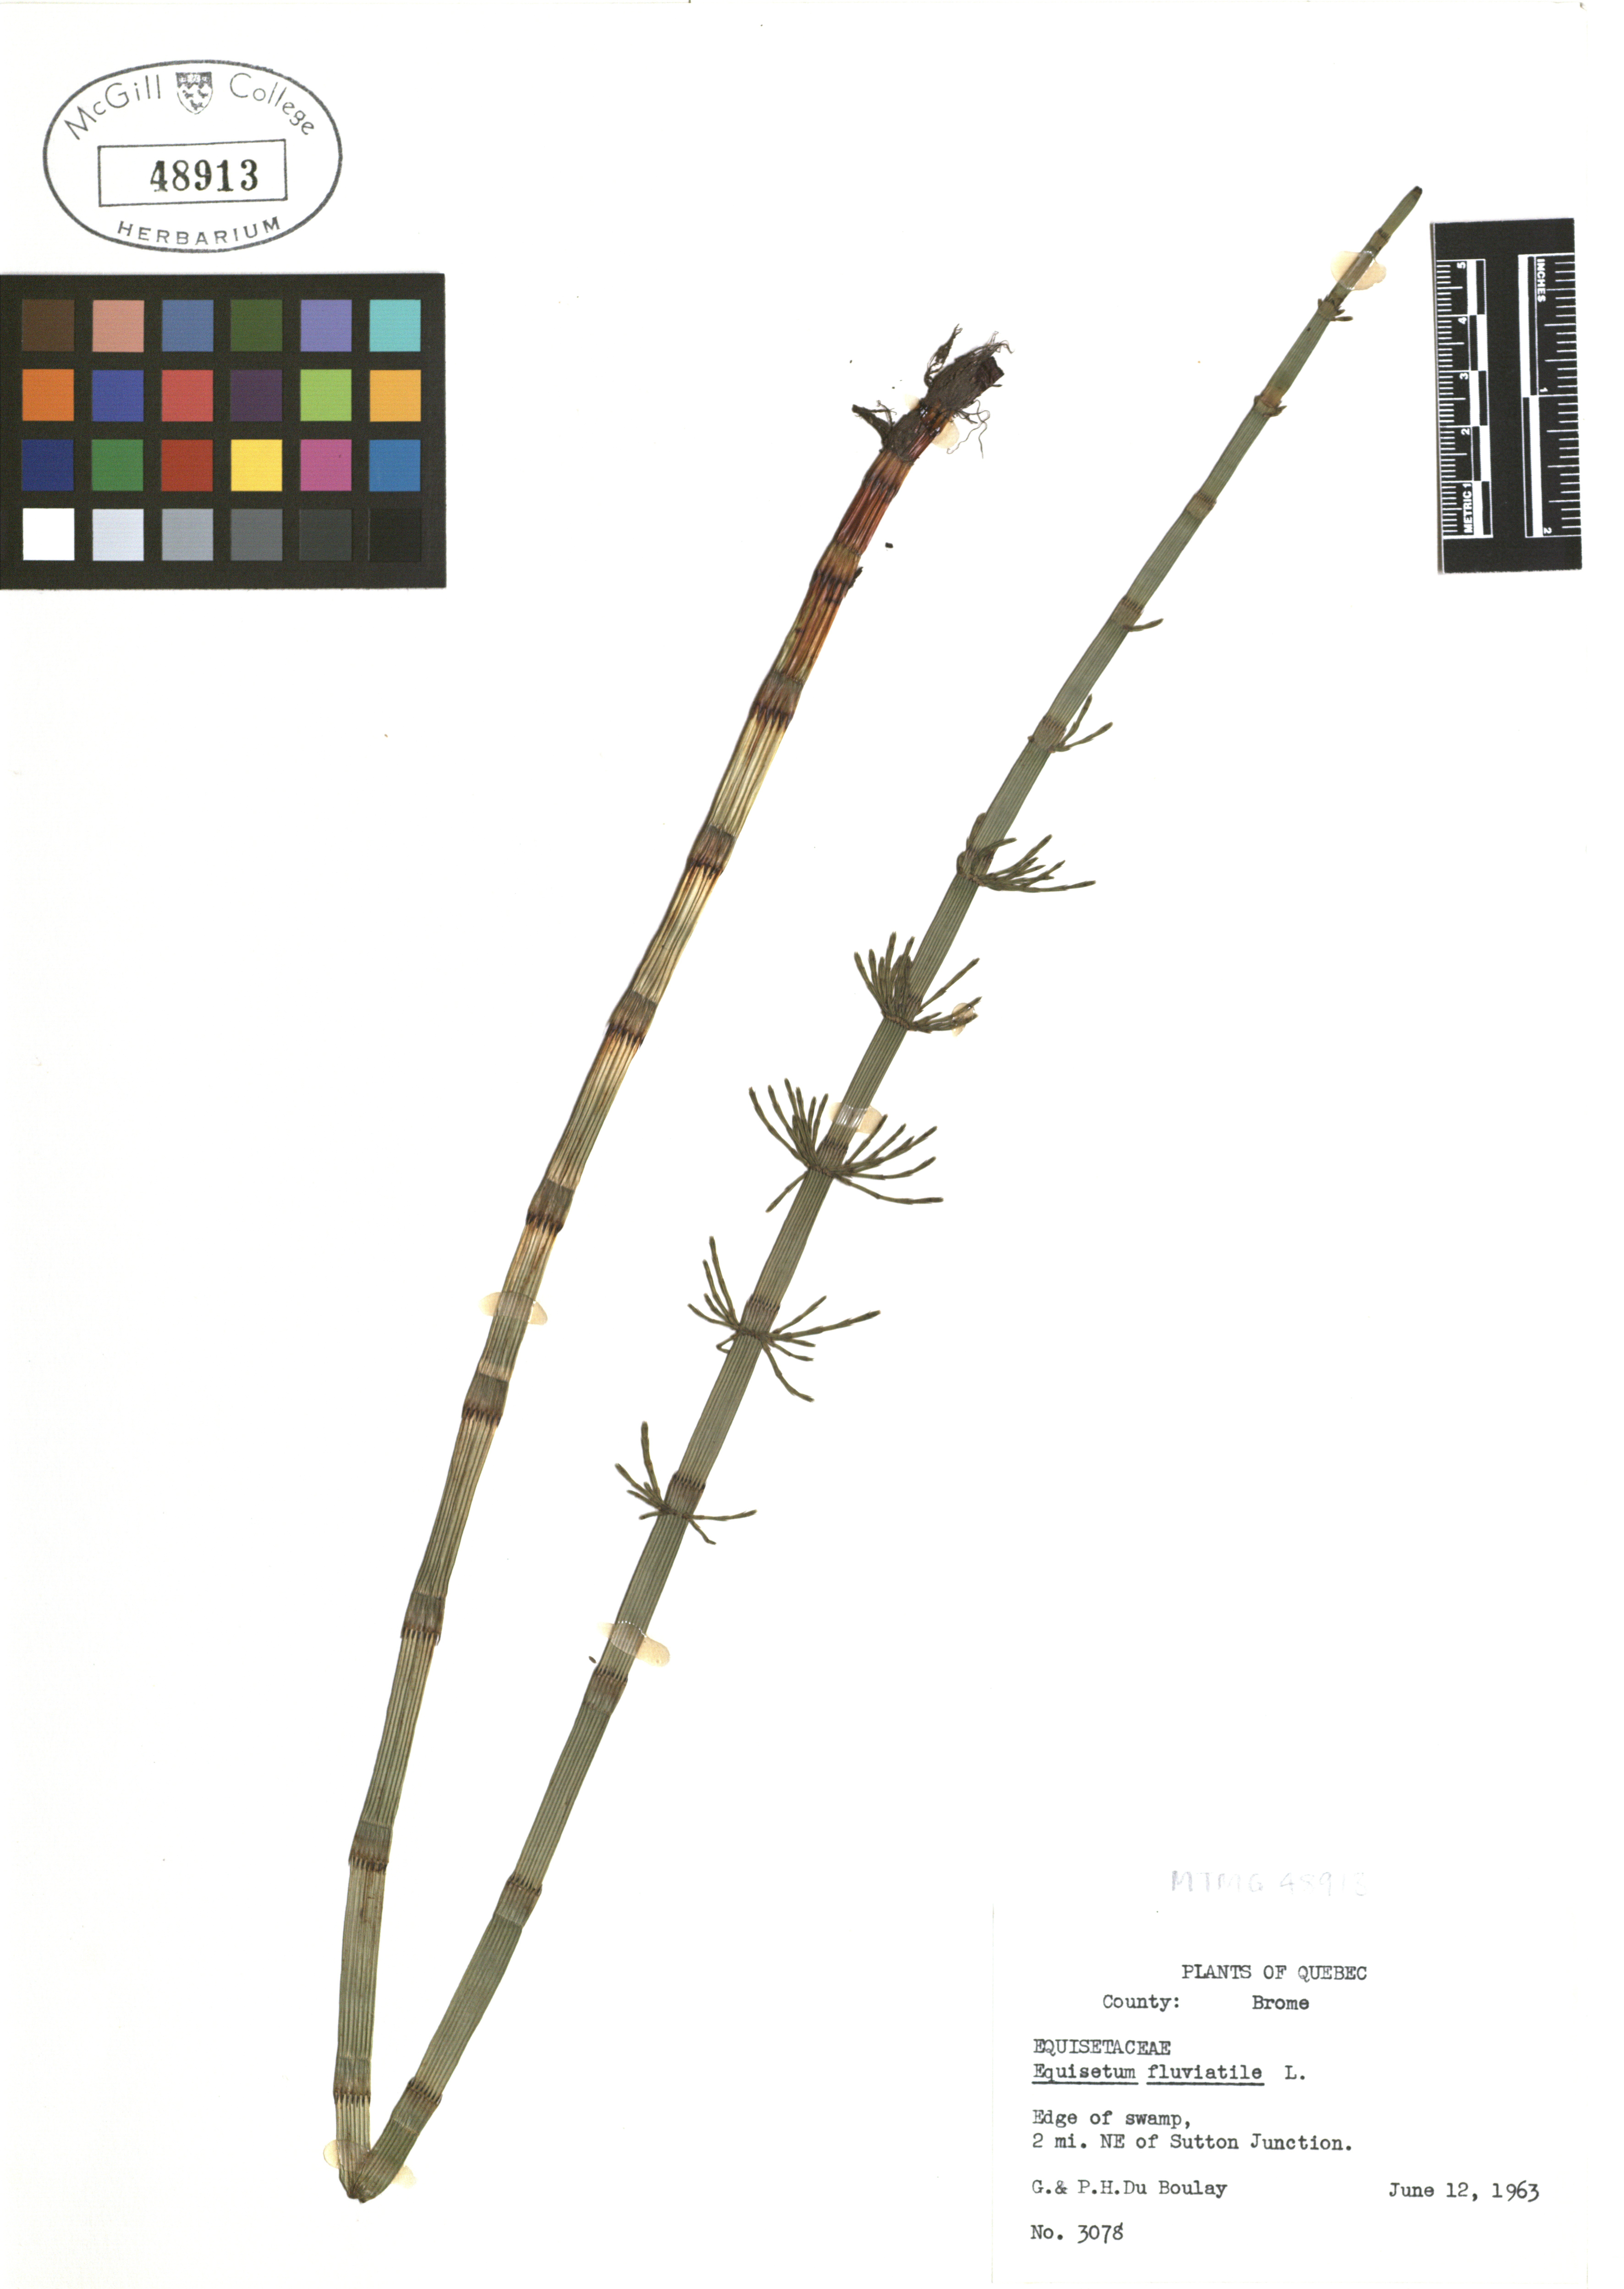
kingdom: Plantae
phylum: Tracheophyta
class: Polypodiopsida
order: Equisetales
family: Equisetaceae
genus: Equisetum
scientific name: Equisetum fluviatile
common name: Water horsetail
